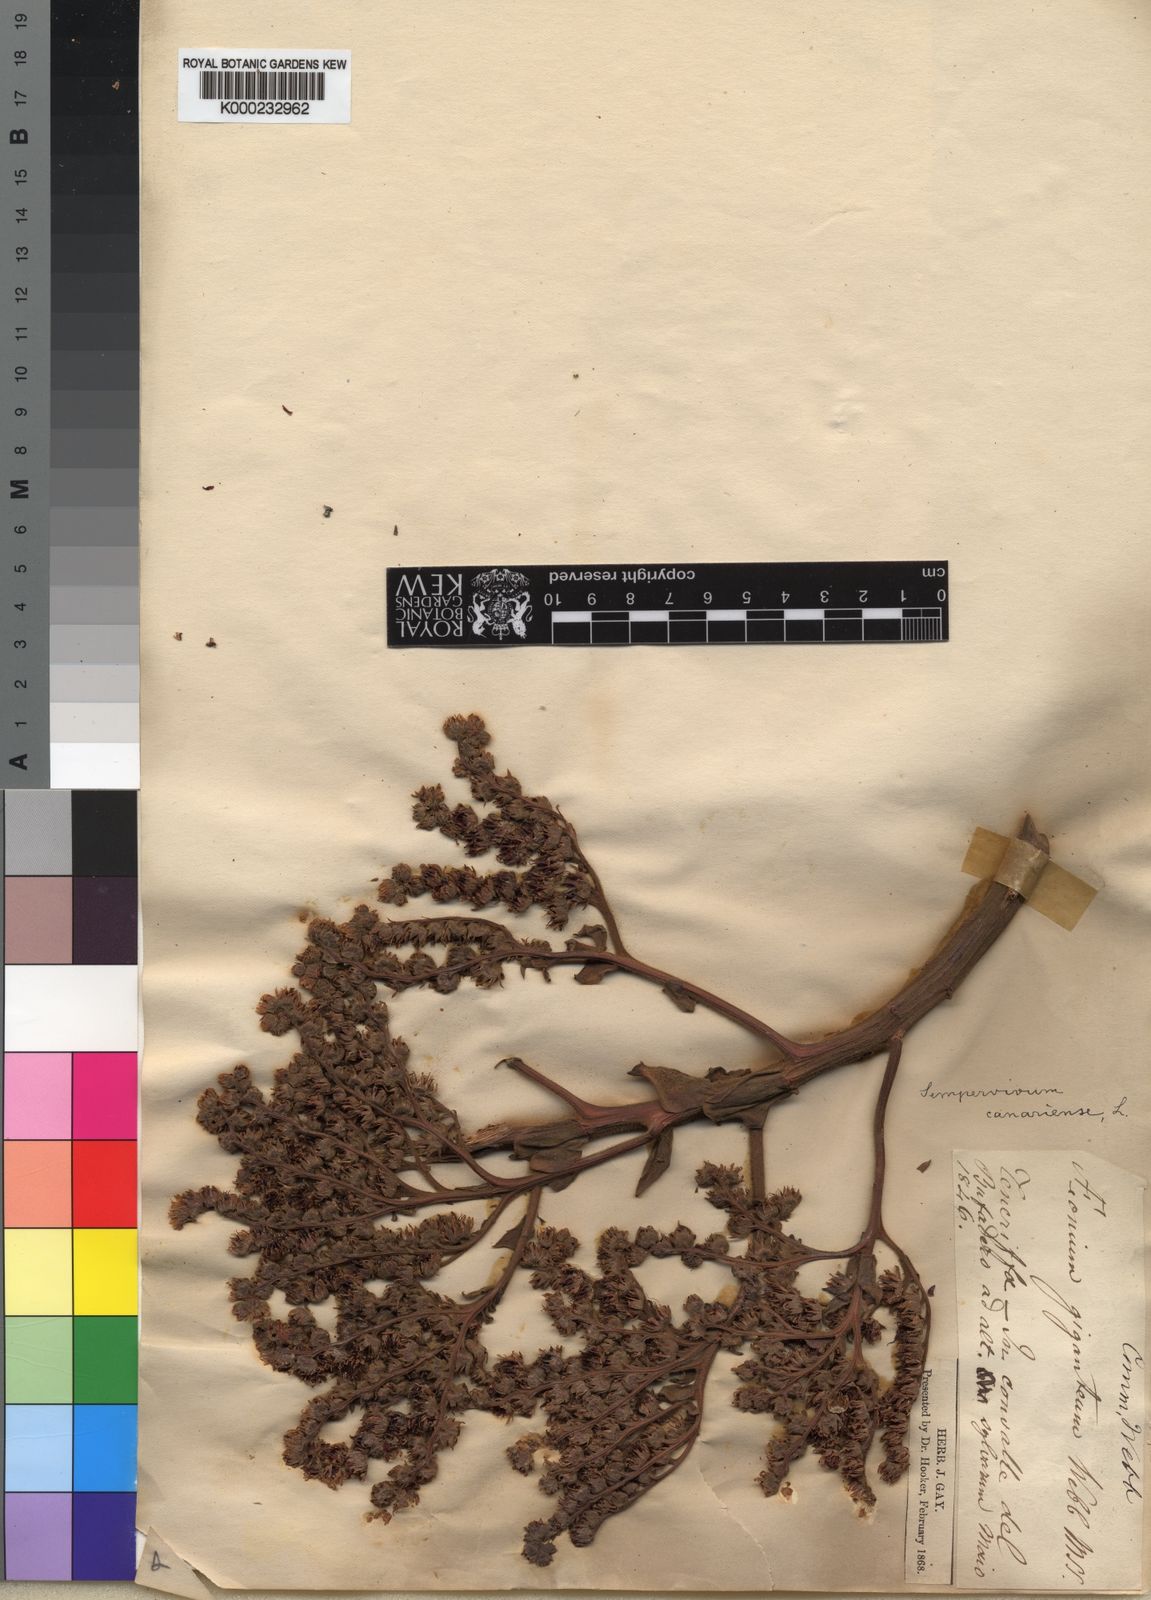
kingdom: Plantae
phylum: Tracheophyta
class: Magnoliopsida
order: Saxifragales
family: Crassulaceae
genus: Aeonium
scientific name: Aeonium canariense
